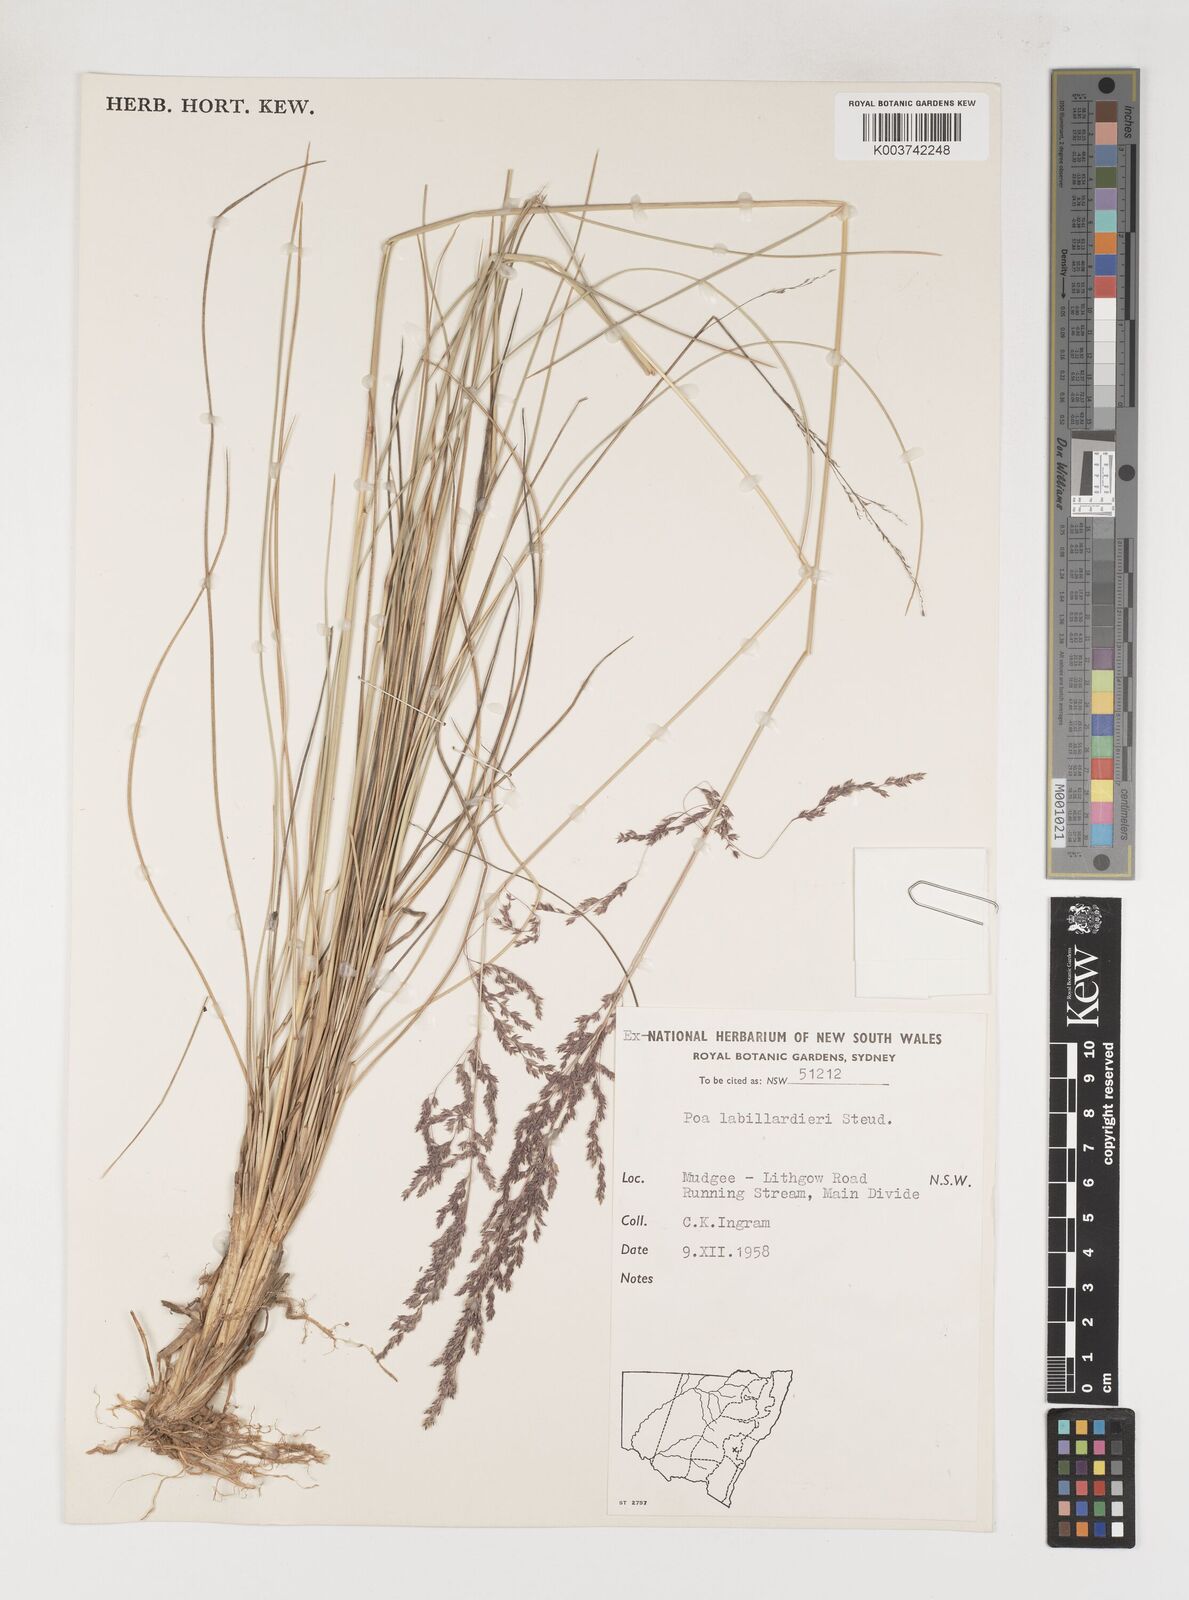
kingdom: Plantae
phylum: Tracheophyta
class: Liliopsida
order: Poales
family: Poaceae
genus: Poa
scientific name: Poa labillardierei
